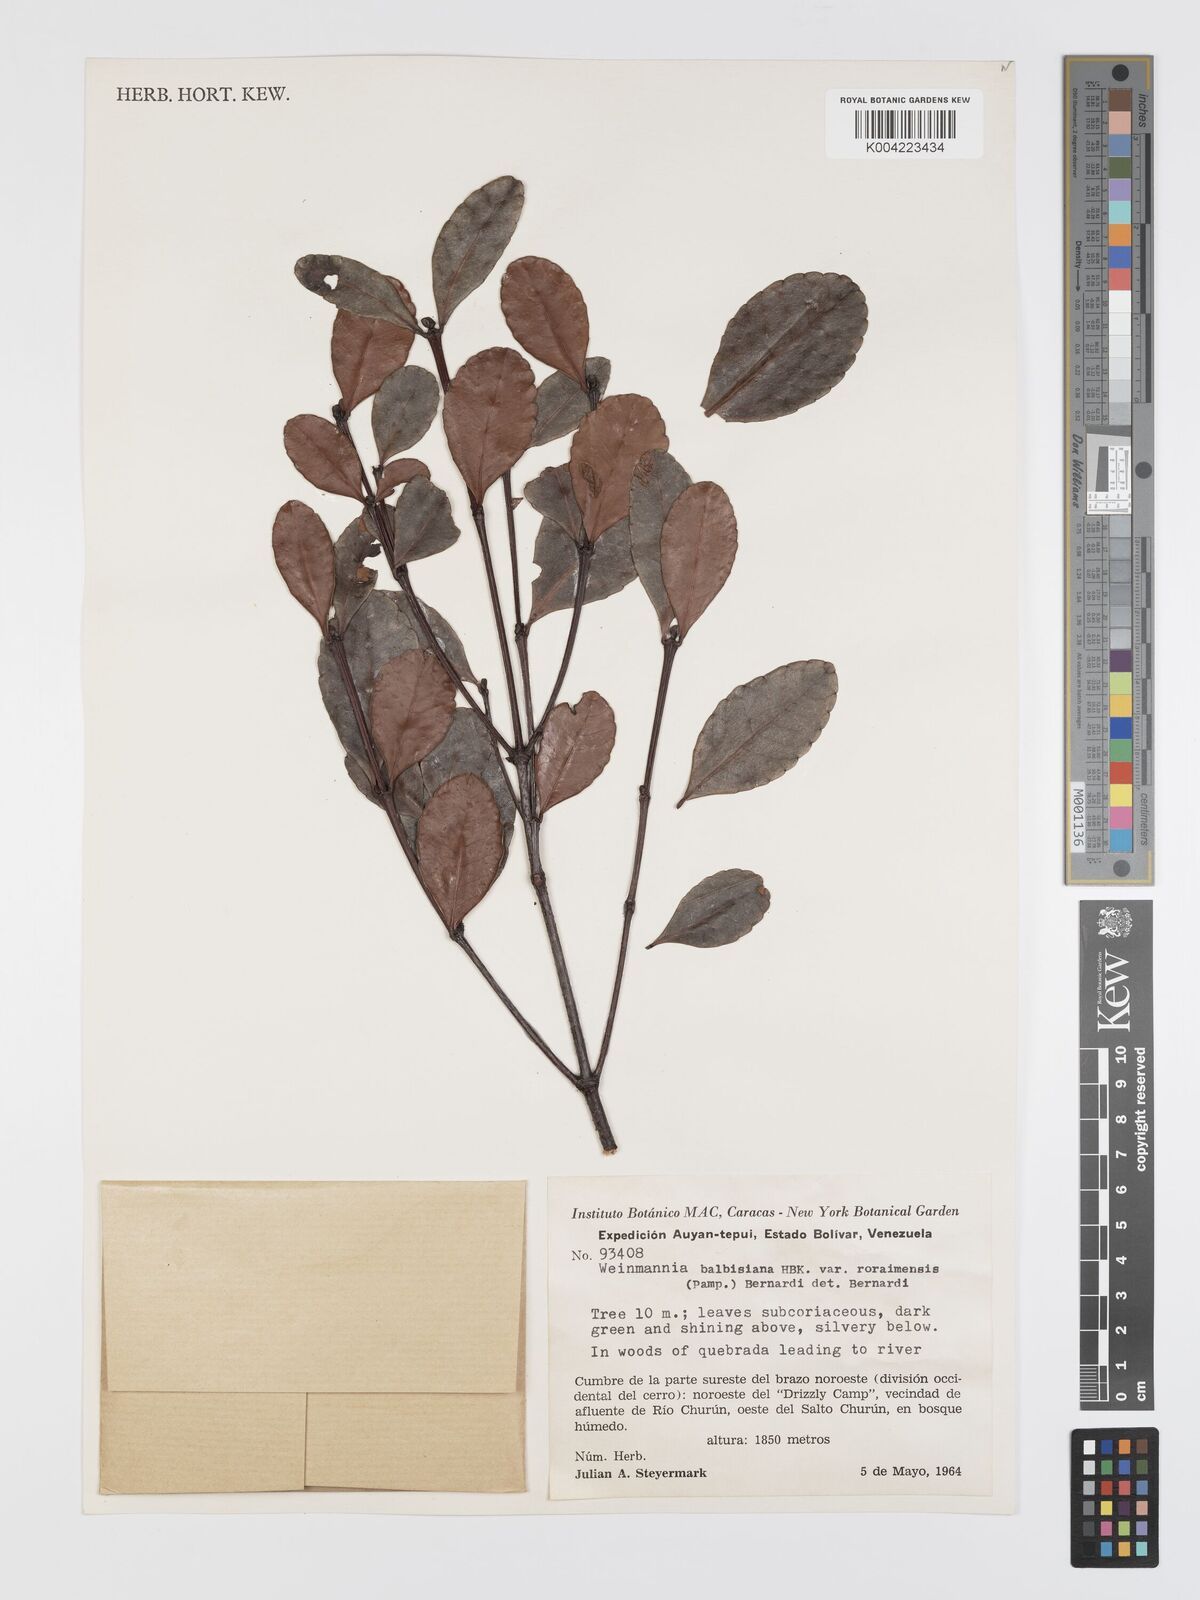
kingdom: Plantae
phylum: Tracheophyta
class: Magnoliopsida
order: Oxalidales
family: Cunoniaceae
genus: Weinmannia
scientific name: Weinmannia balbisana
